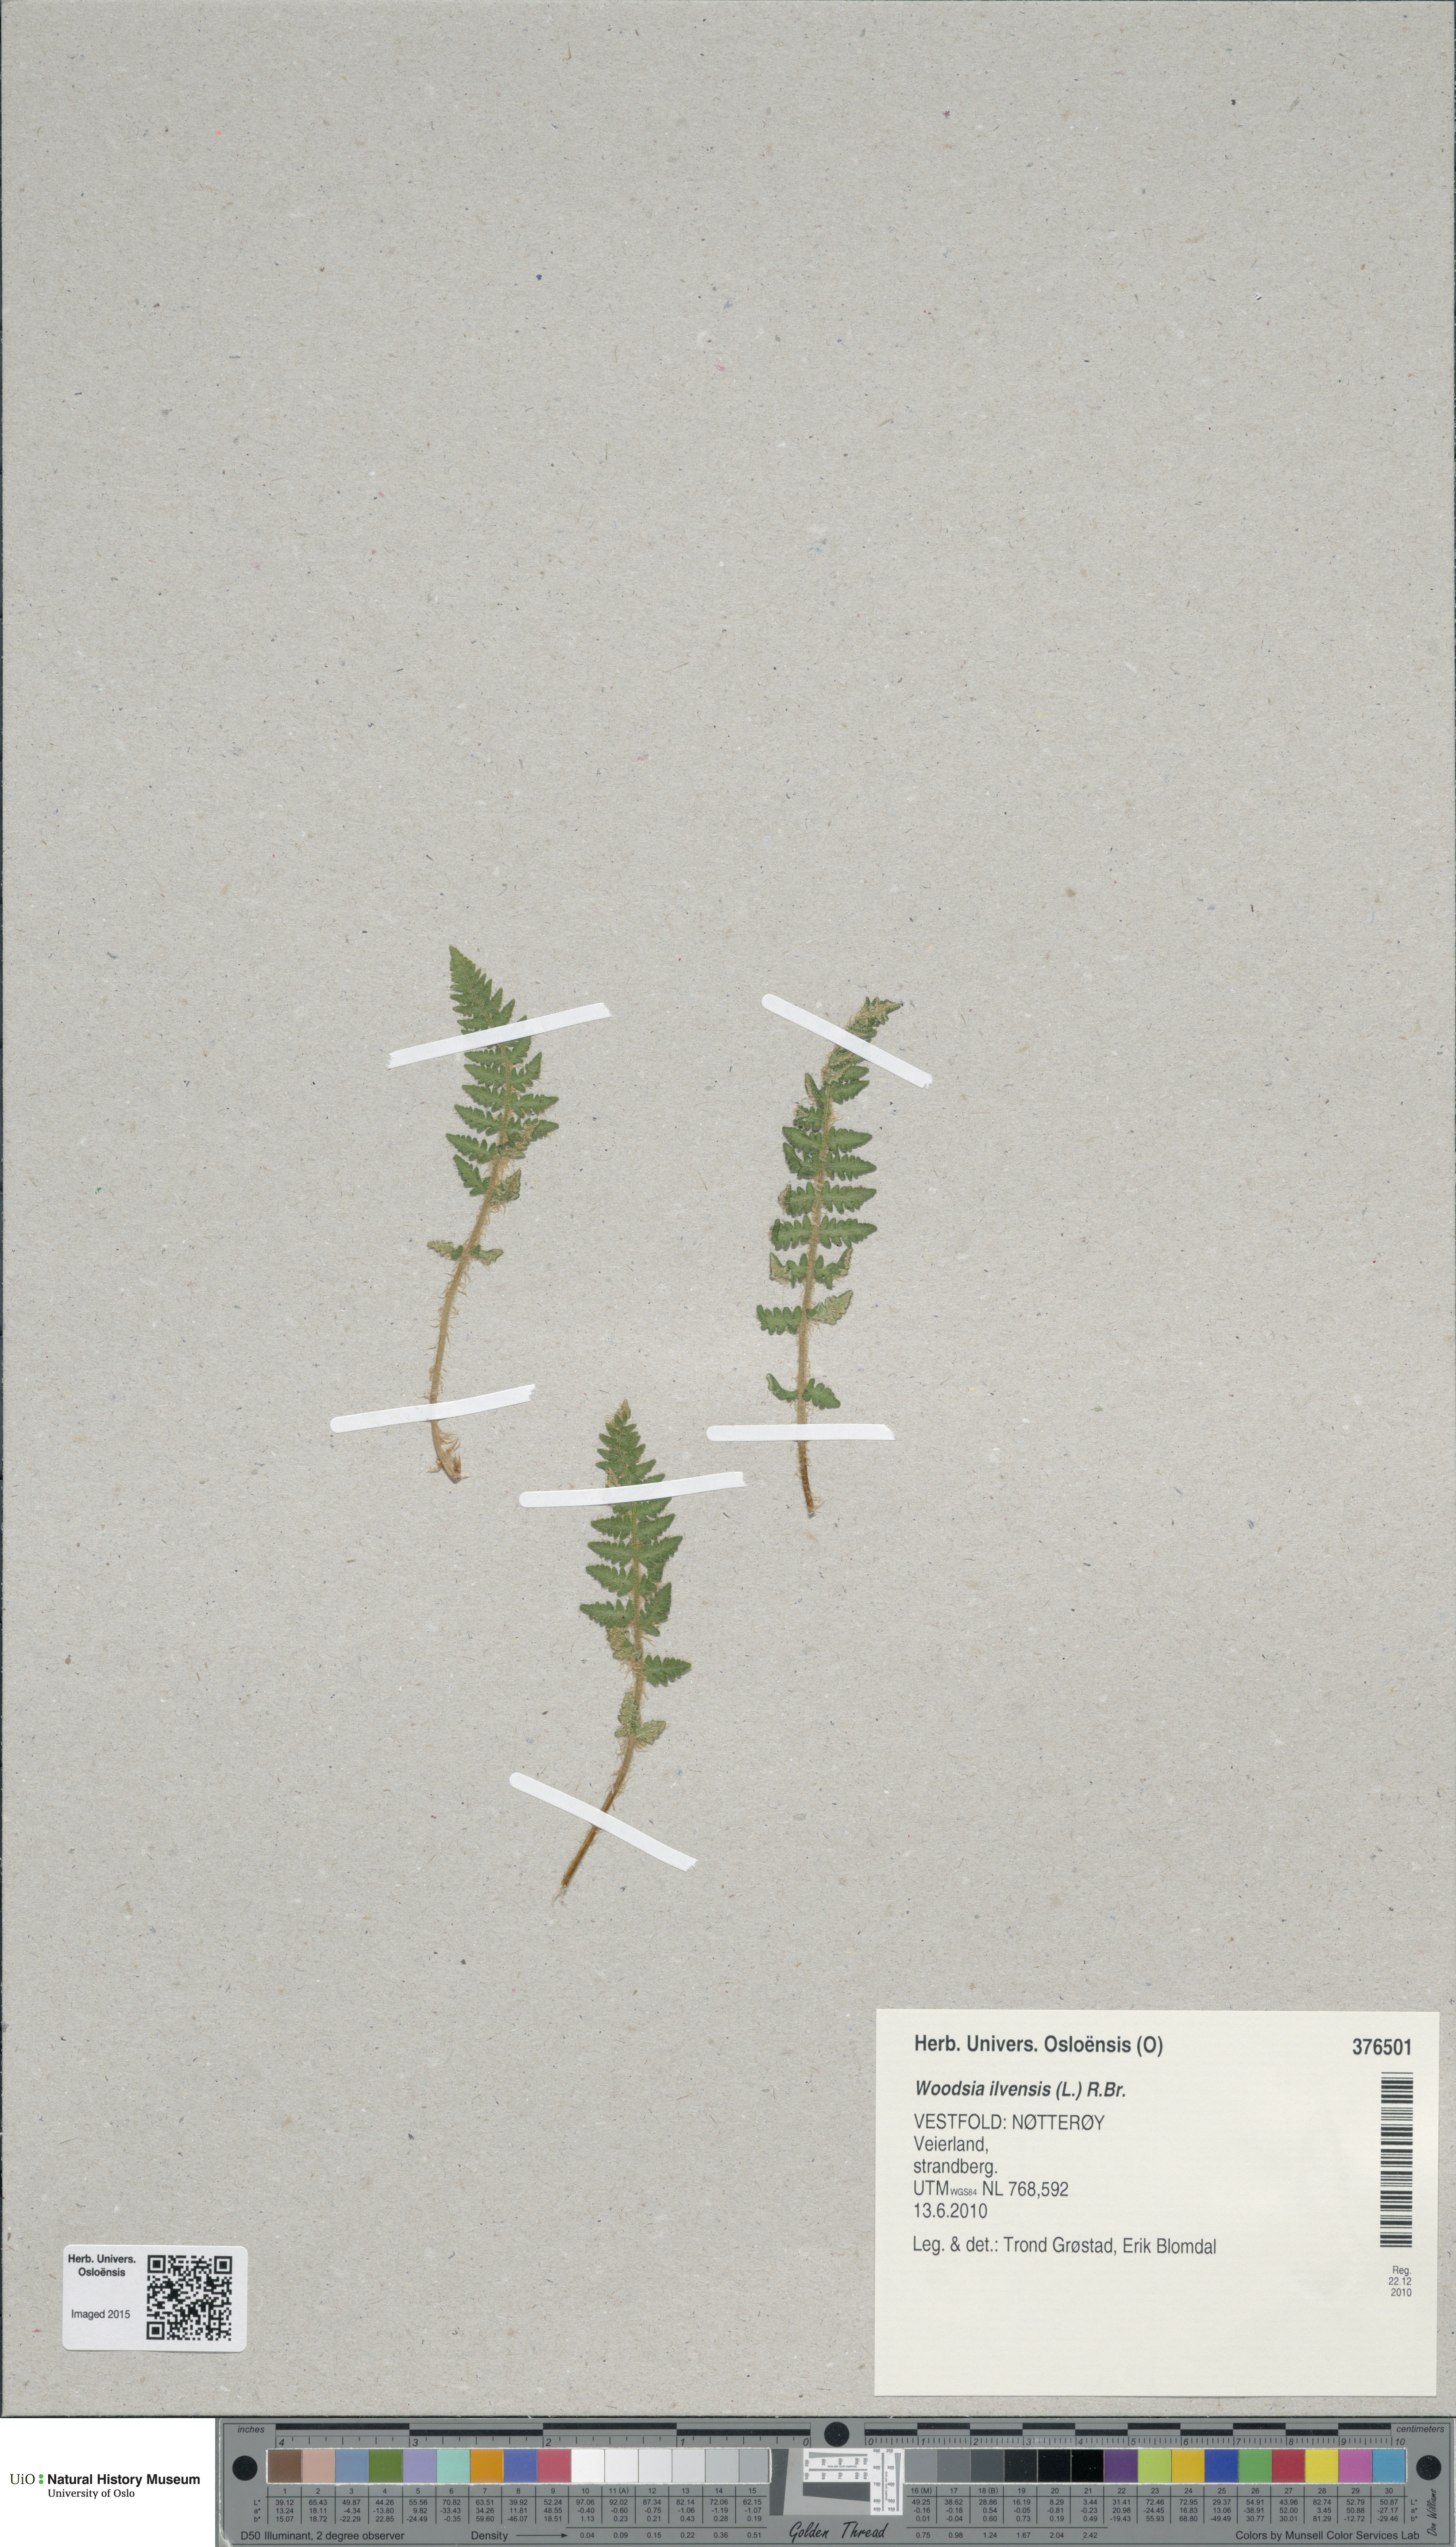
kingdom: Plantae
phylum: Tracheophyta
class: Polypodiopsida
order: Polypodiales
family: Woodsiaceae
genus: Woodsia
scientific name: Woodsia ilvensis
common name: Fragrant woodsia
